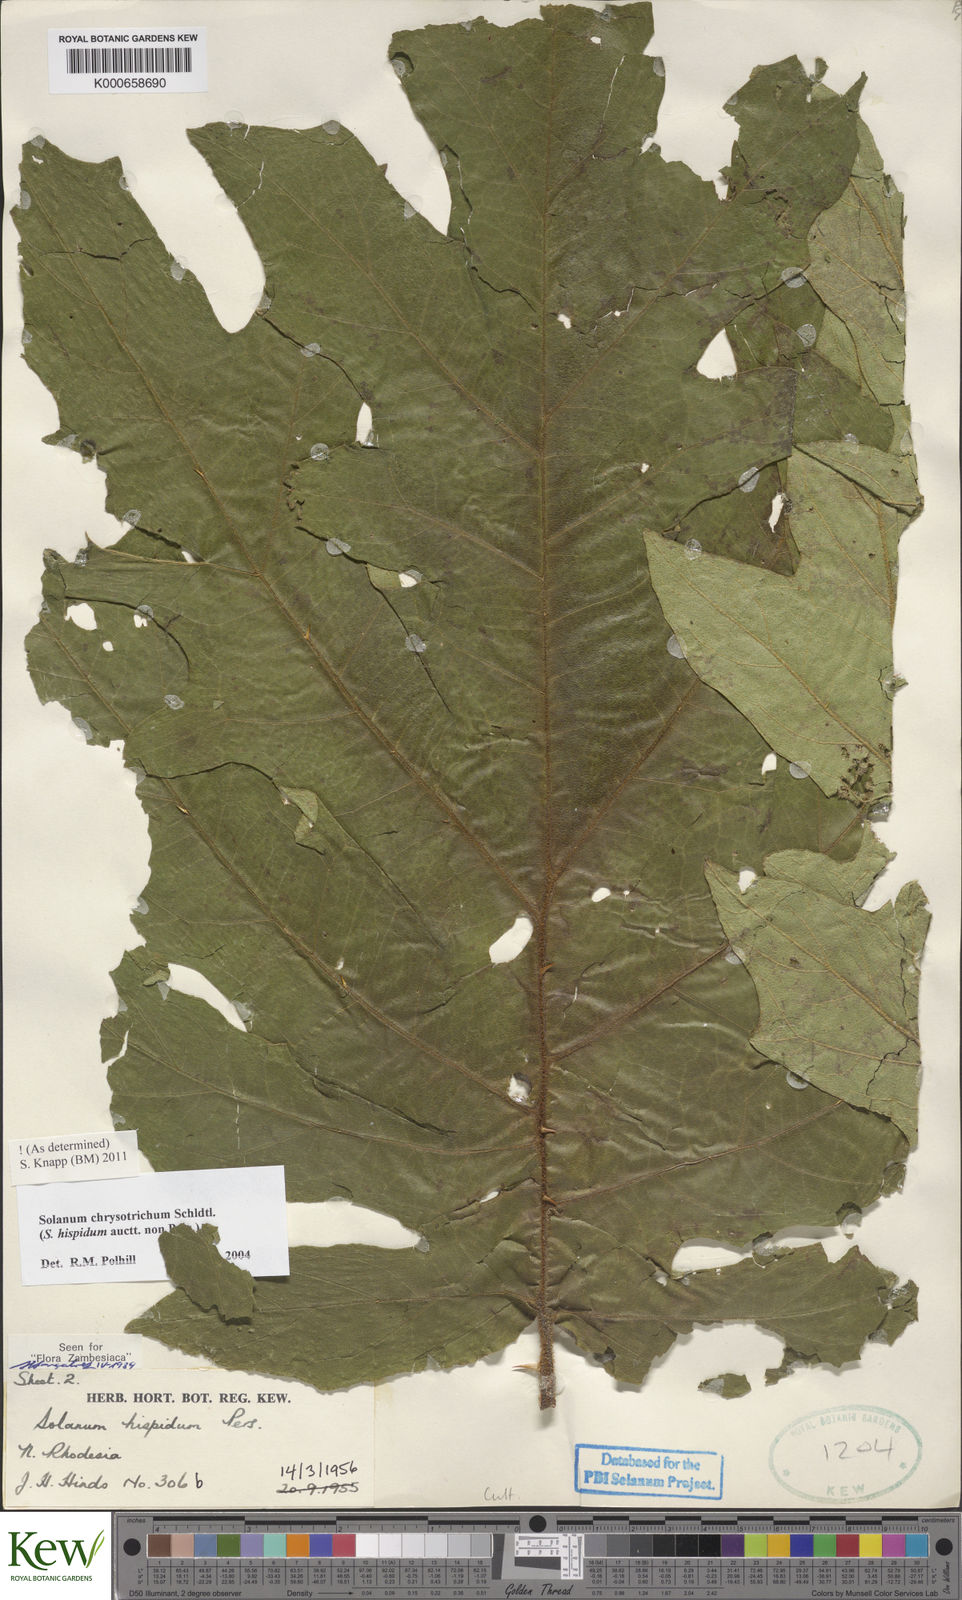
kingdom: Plantae
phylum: Tracheophyta
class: Magnoliopsida
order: Solanales
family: Solanaceae
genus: Solanum
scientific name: Solanum chrysotrichum
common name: Nightshade
